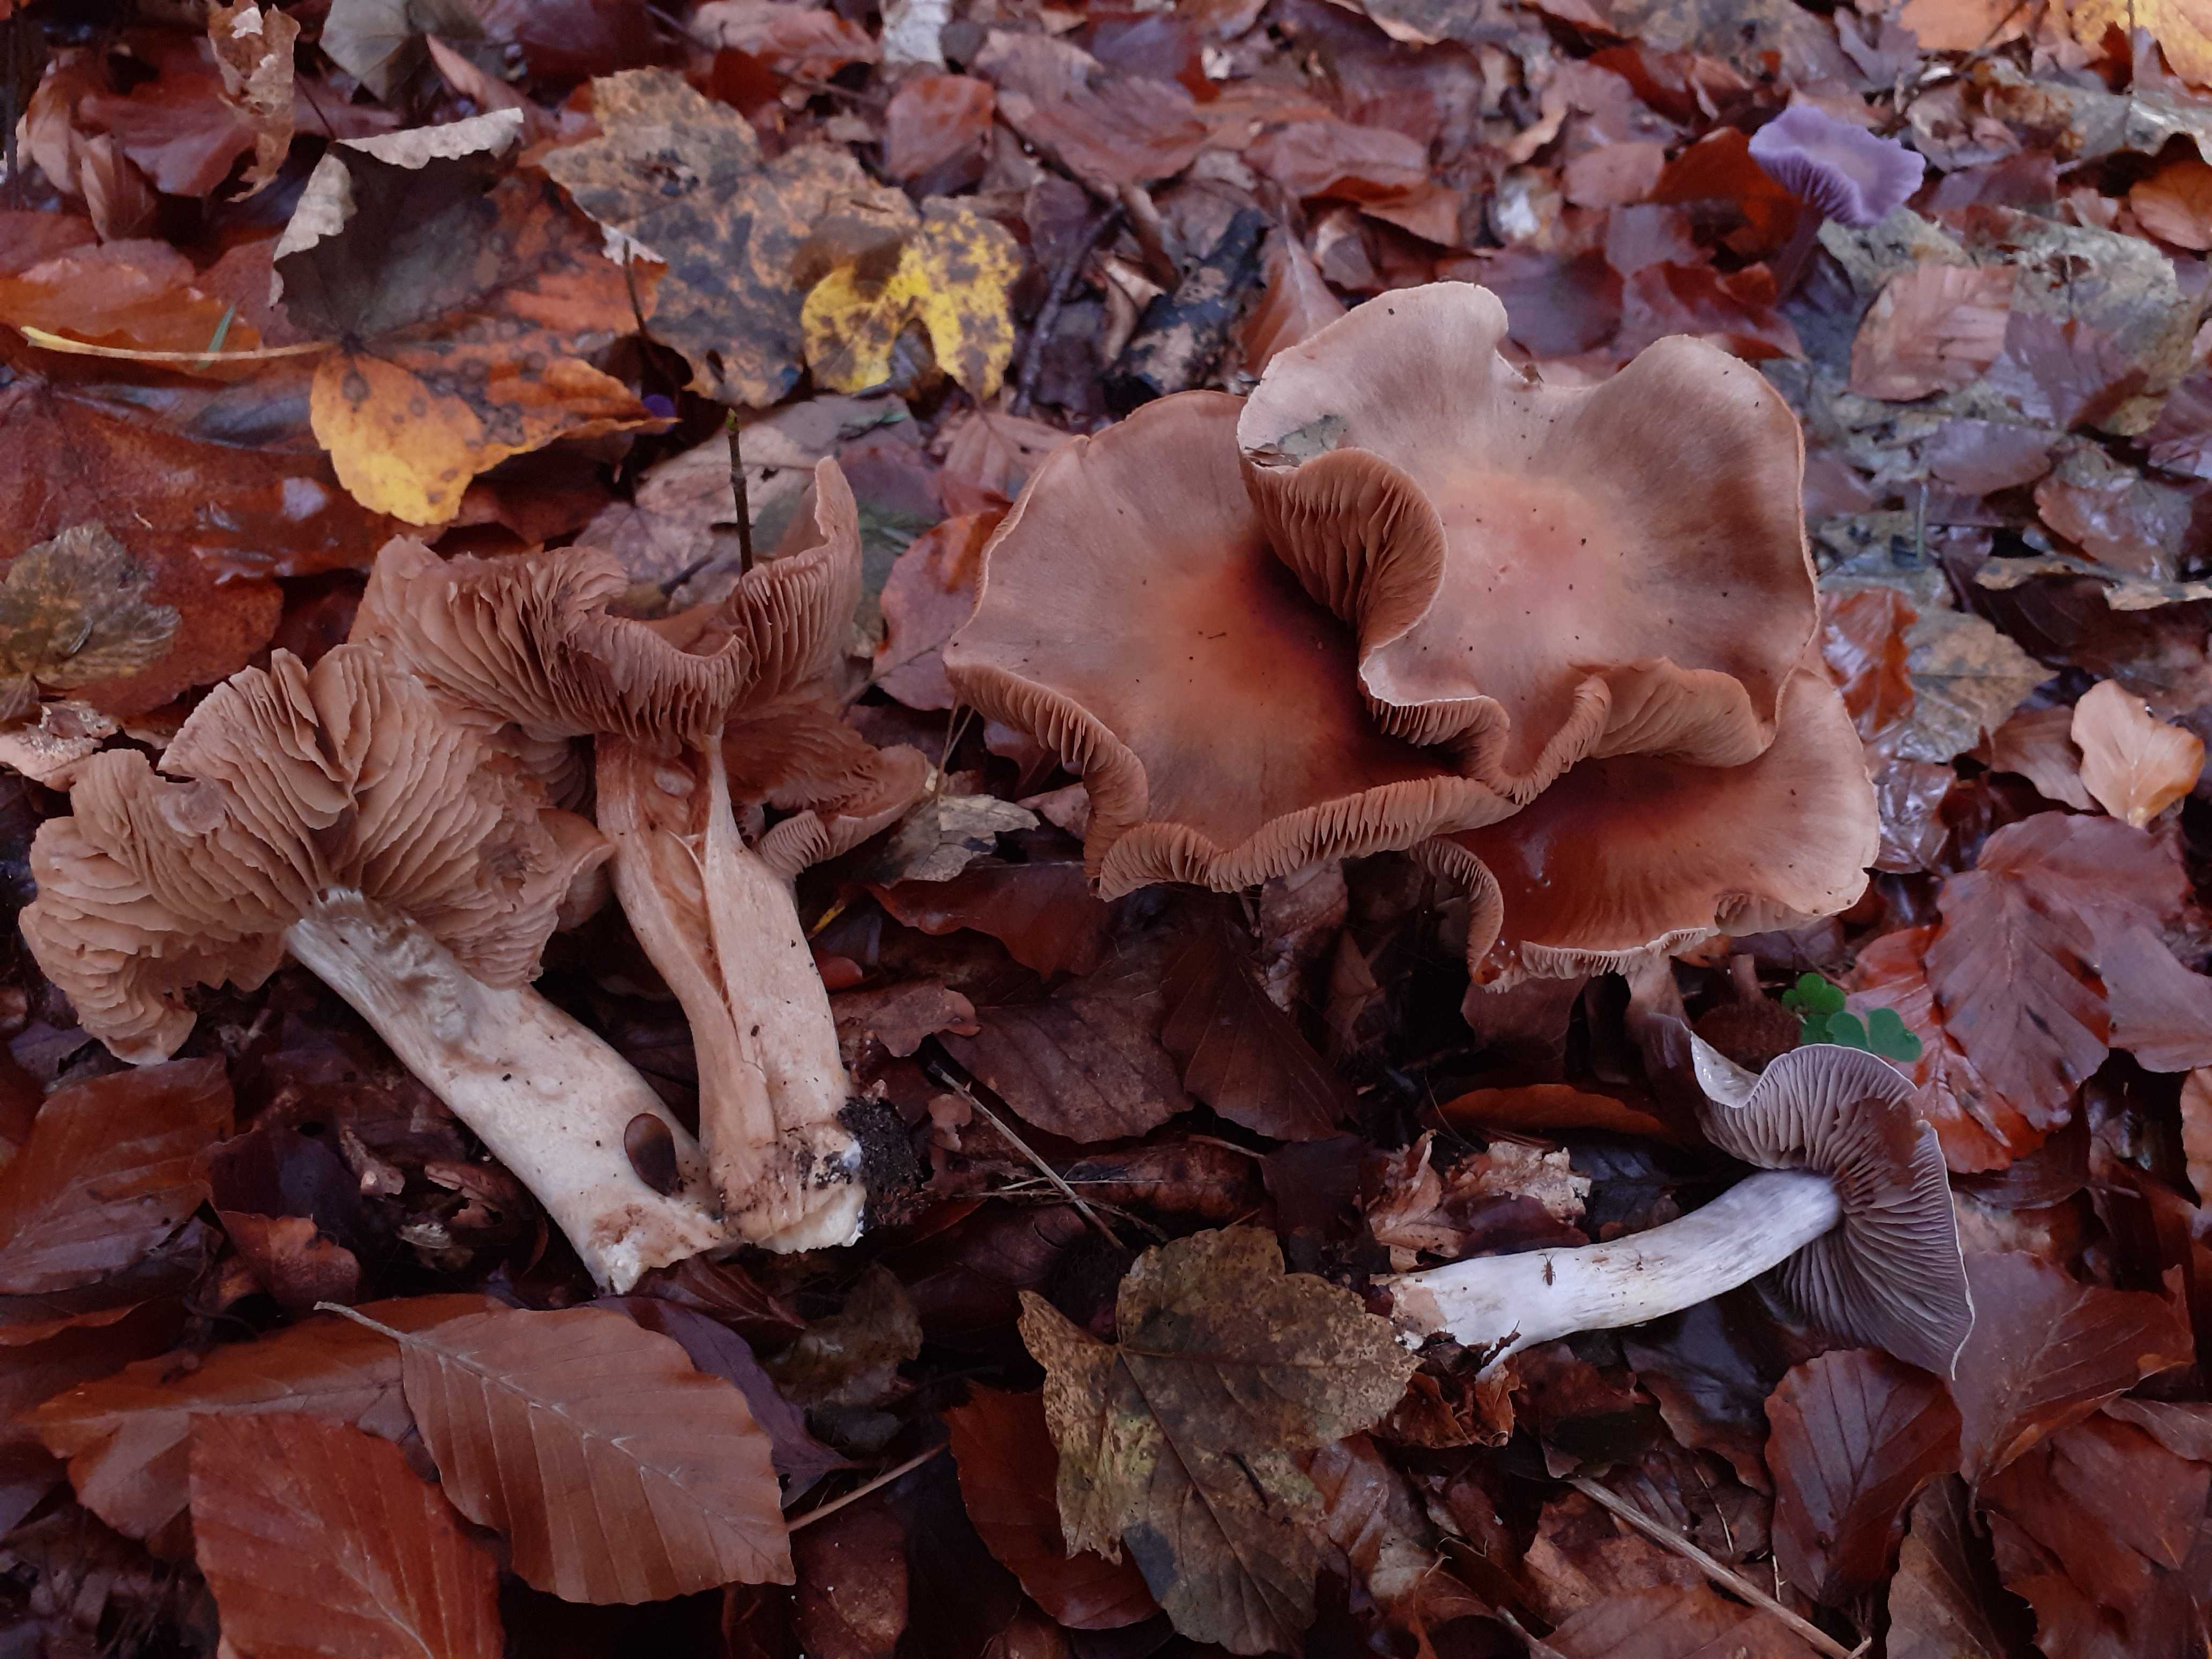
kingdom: Fungi
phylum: Basidiomycota
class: Agaricomycetes
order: Agaricales
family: Cortinariaceae
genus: Cortinarius
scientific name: Cortinarius
